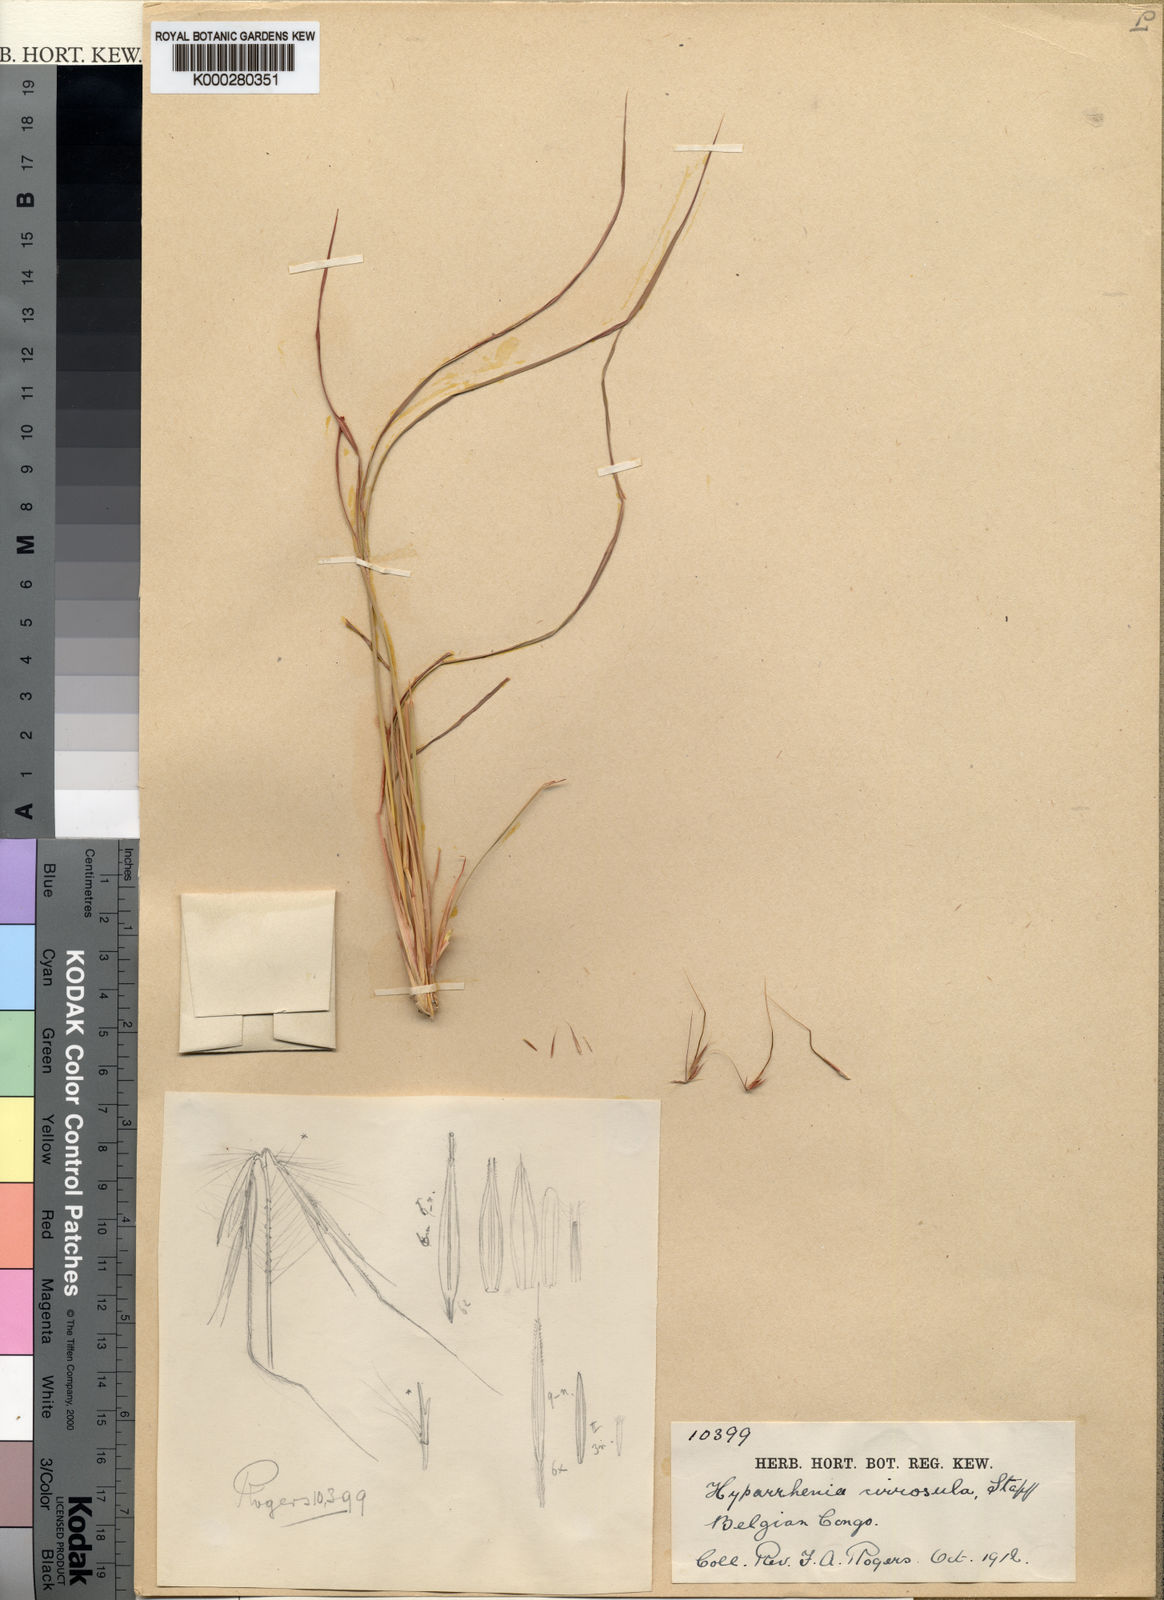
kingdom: Plantae
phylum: Tracheophyta
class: Liliopsida
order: Poales
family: Poaceae
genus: Hyparrhenia
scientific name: Hyparrhenia newtonii
